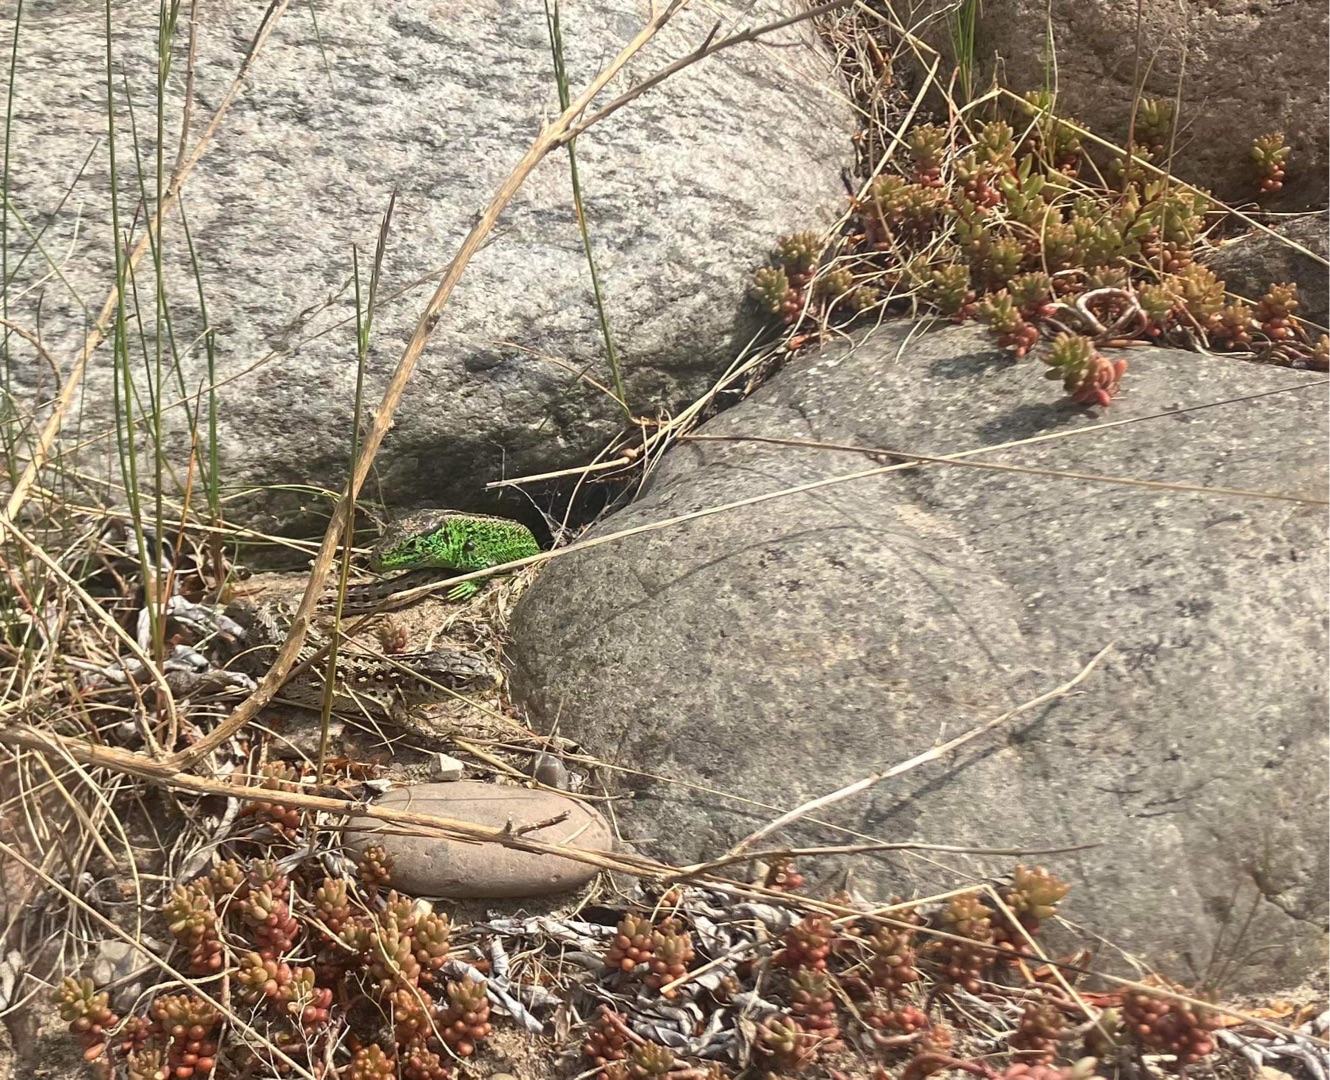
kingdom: Animalia
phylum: Chordata
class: Squamata
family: Lacertidae
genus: Lacerta
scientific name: Lacerta agilis
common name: Markfirben
